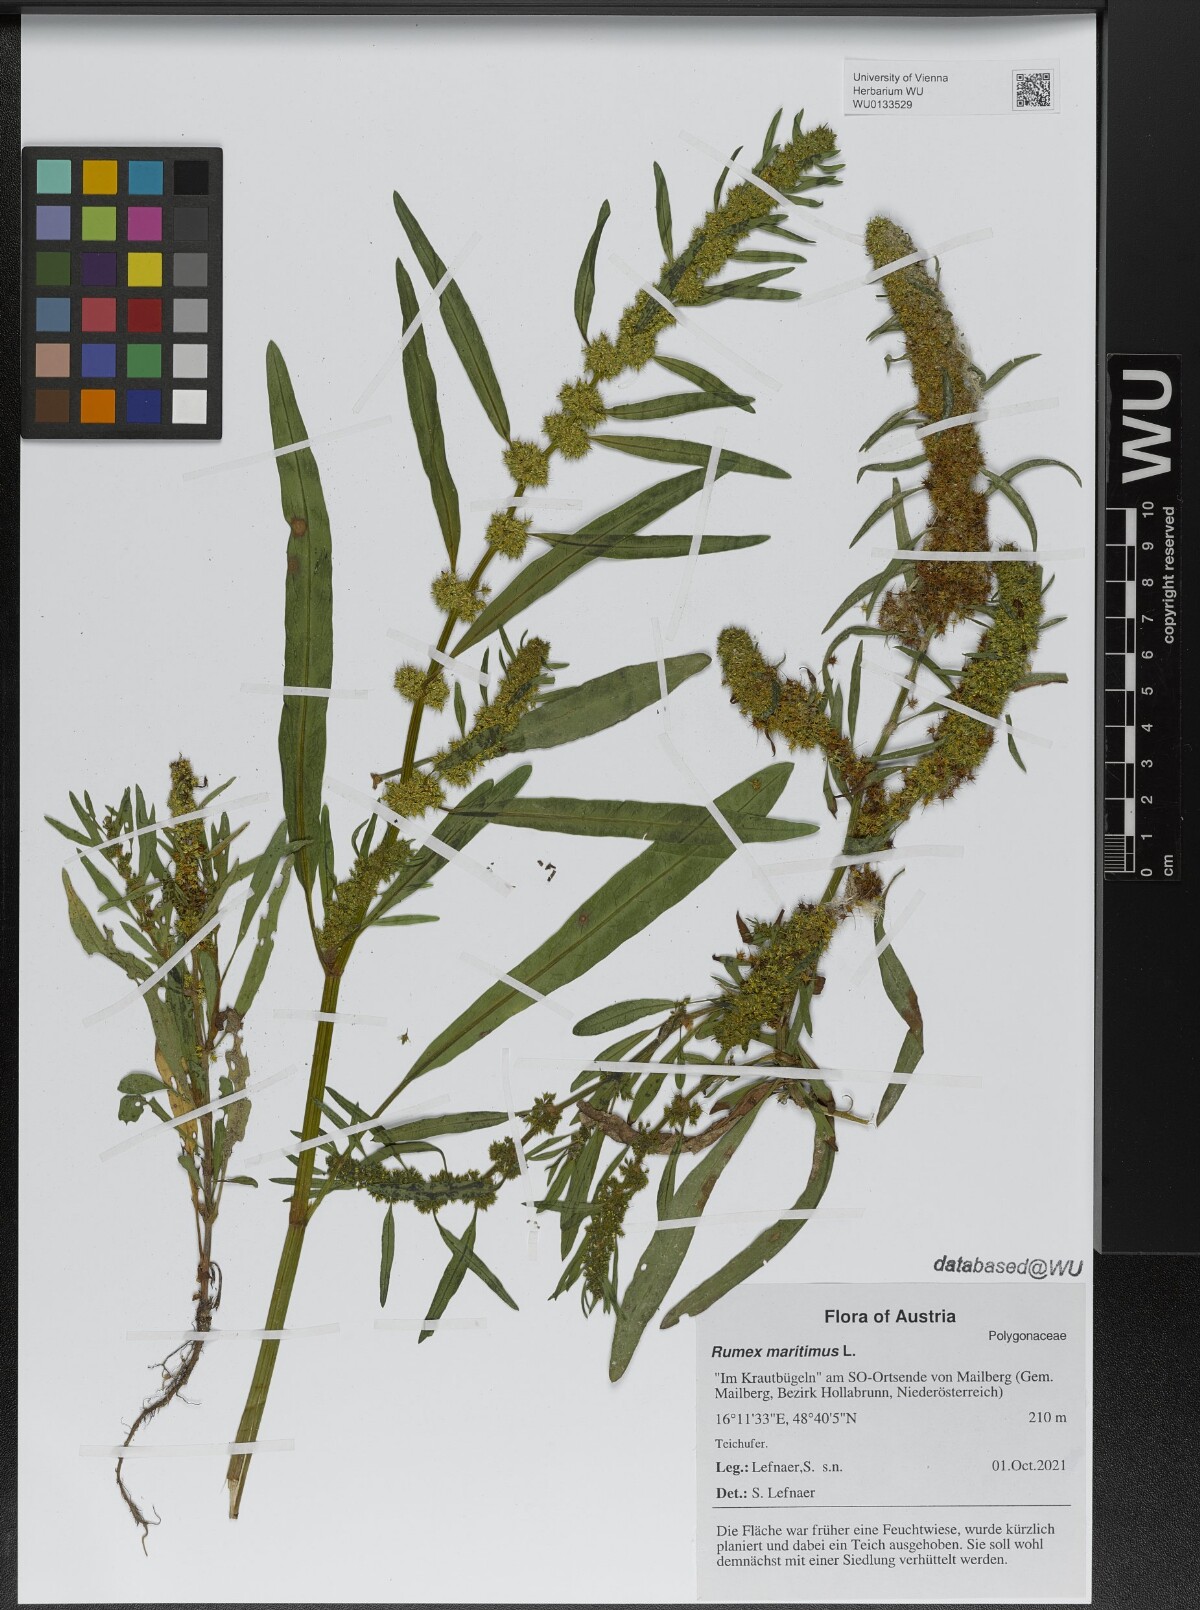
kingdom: Plantae
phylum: Tracheophyta
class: Magnoliopsida
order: Caryophyllales
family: Polygonaceae
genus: Rumex
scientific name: Rumex maritimus
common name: Golden dock
